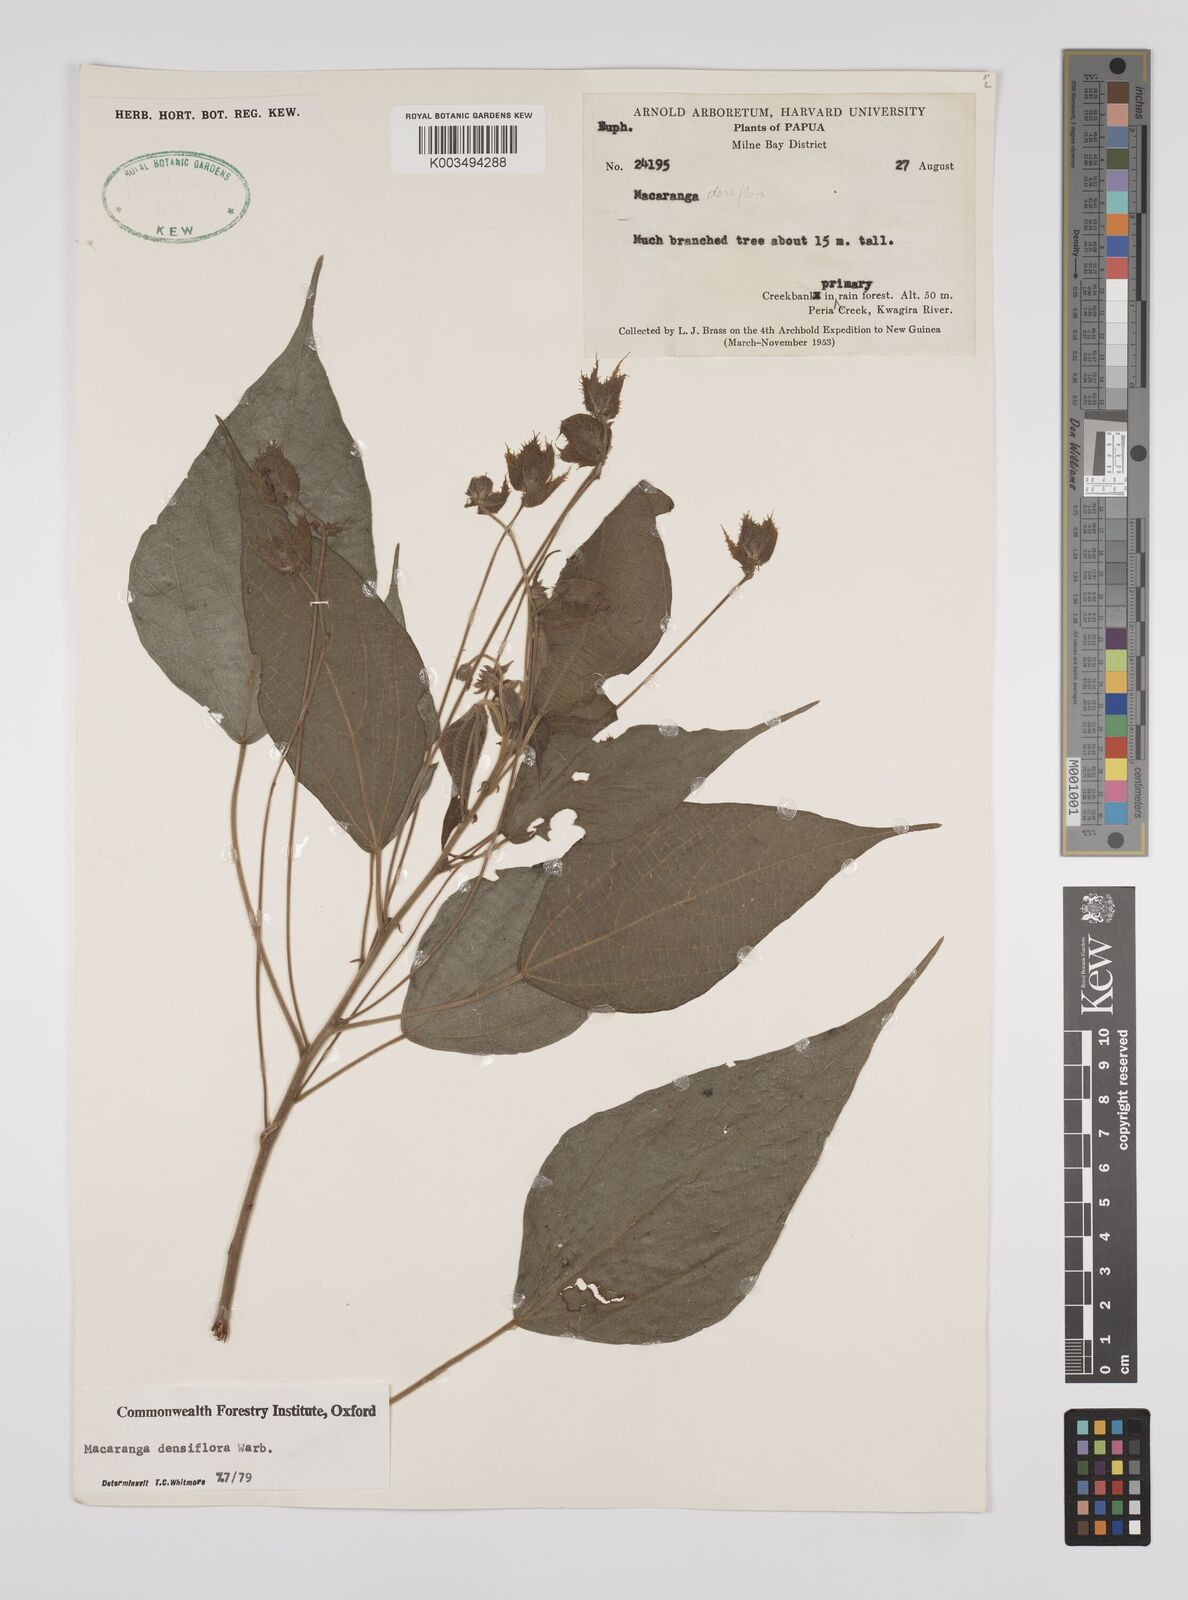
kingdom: Plantae
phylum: Tracheophyta
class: Magnoliopsida
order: Malpighiales
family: Euphorbiaceae
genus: Macaranga
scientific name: Macaranga densiflora
